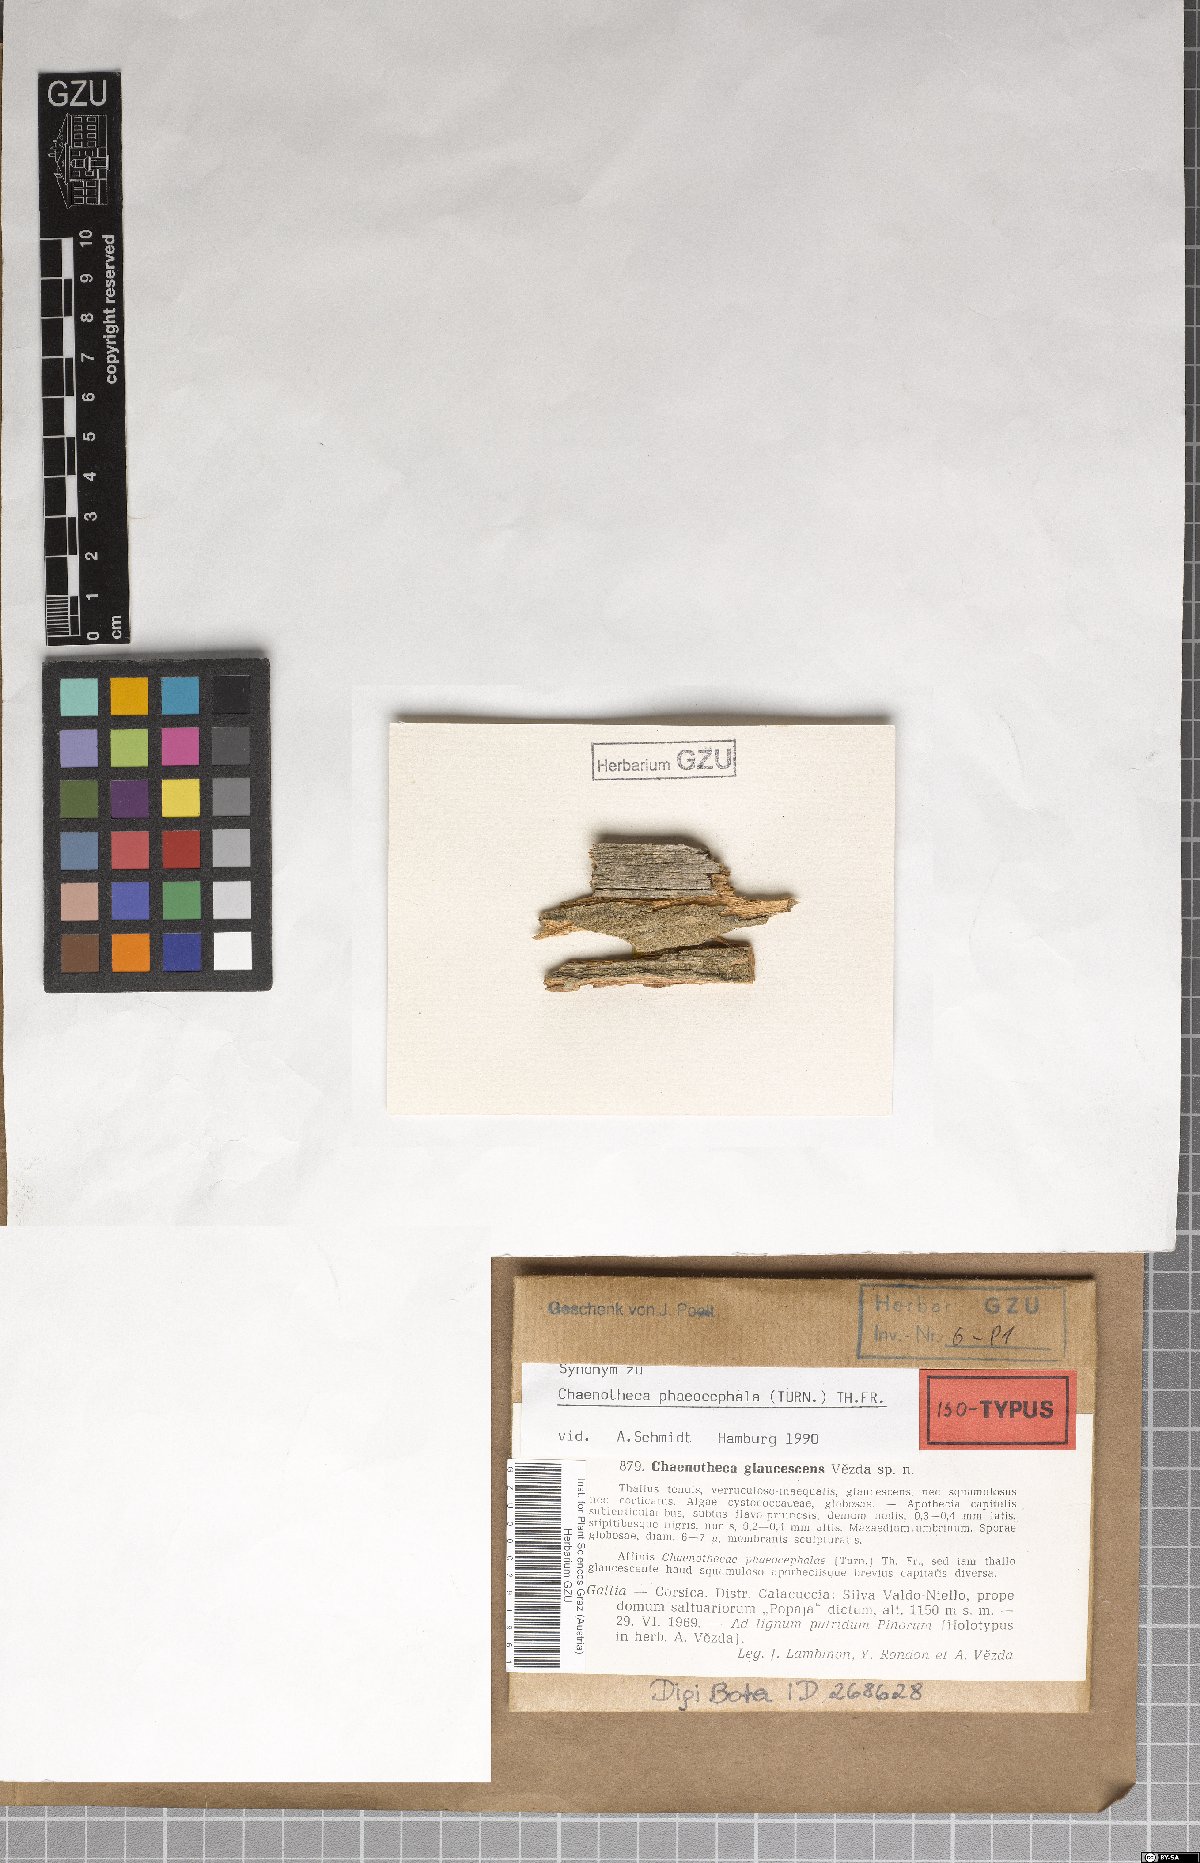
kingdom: Fungi
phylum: Ascomycota
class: Coniocybomycetes
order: Coniocybales
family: Coniocybaceae
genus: Chaenotheca
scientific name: Chaenotheca
